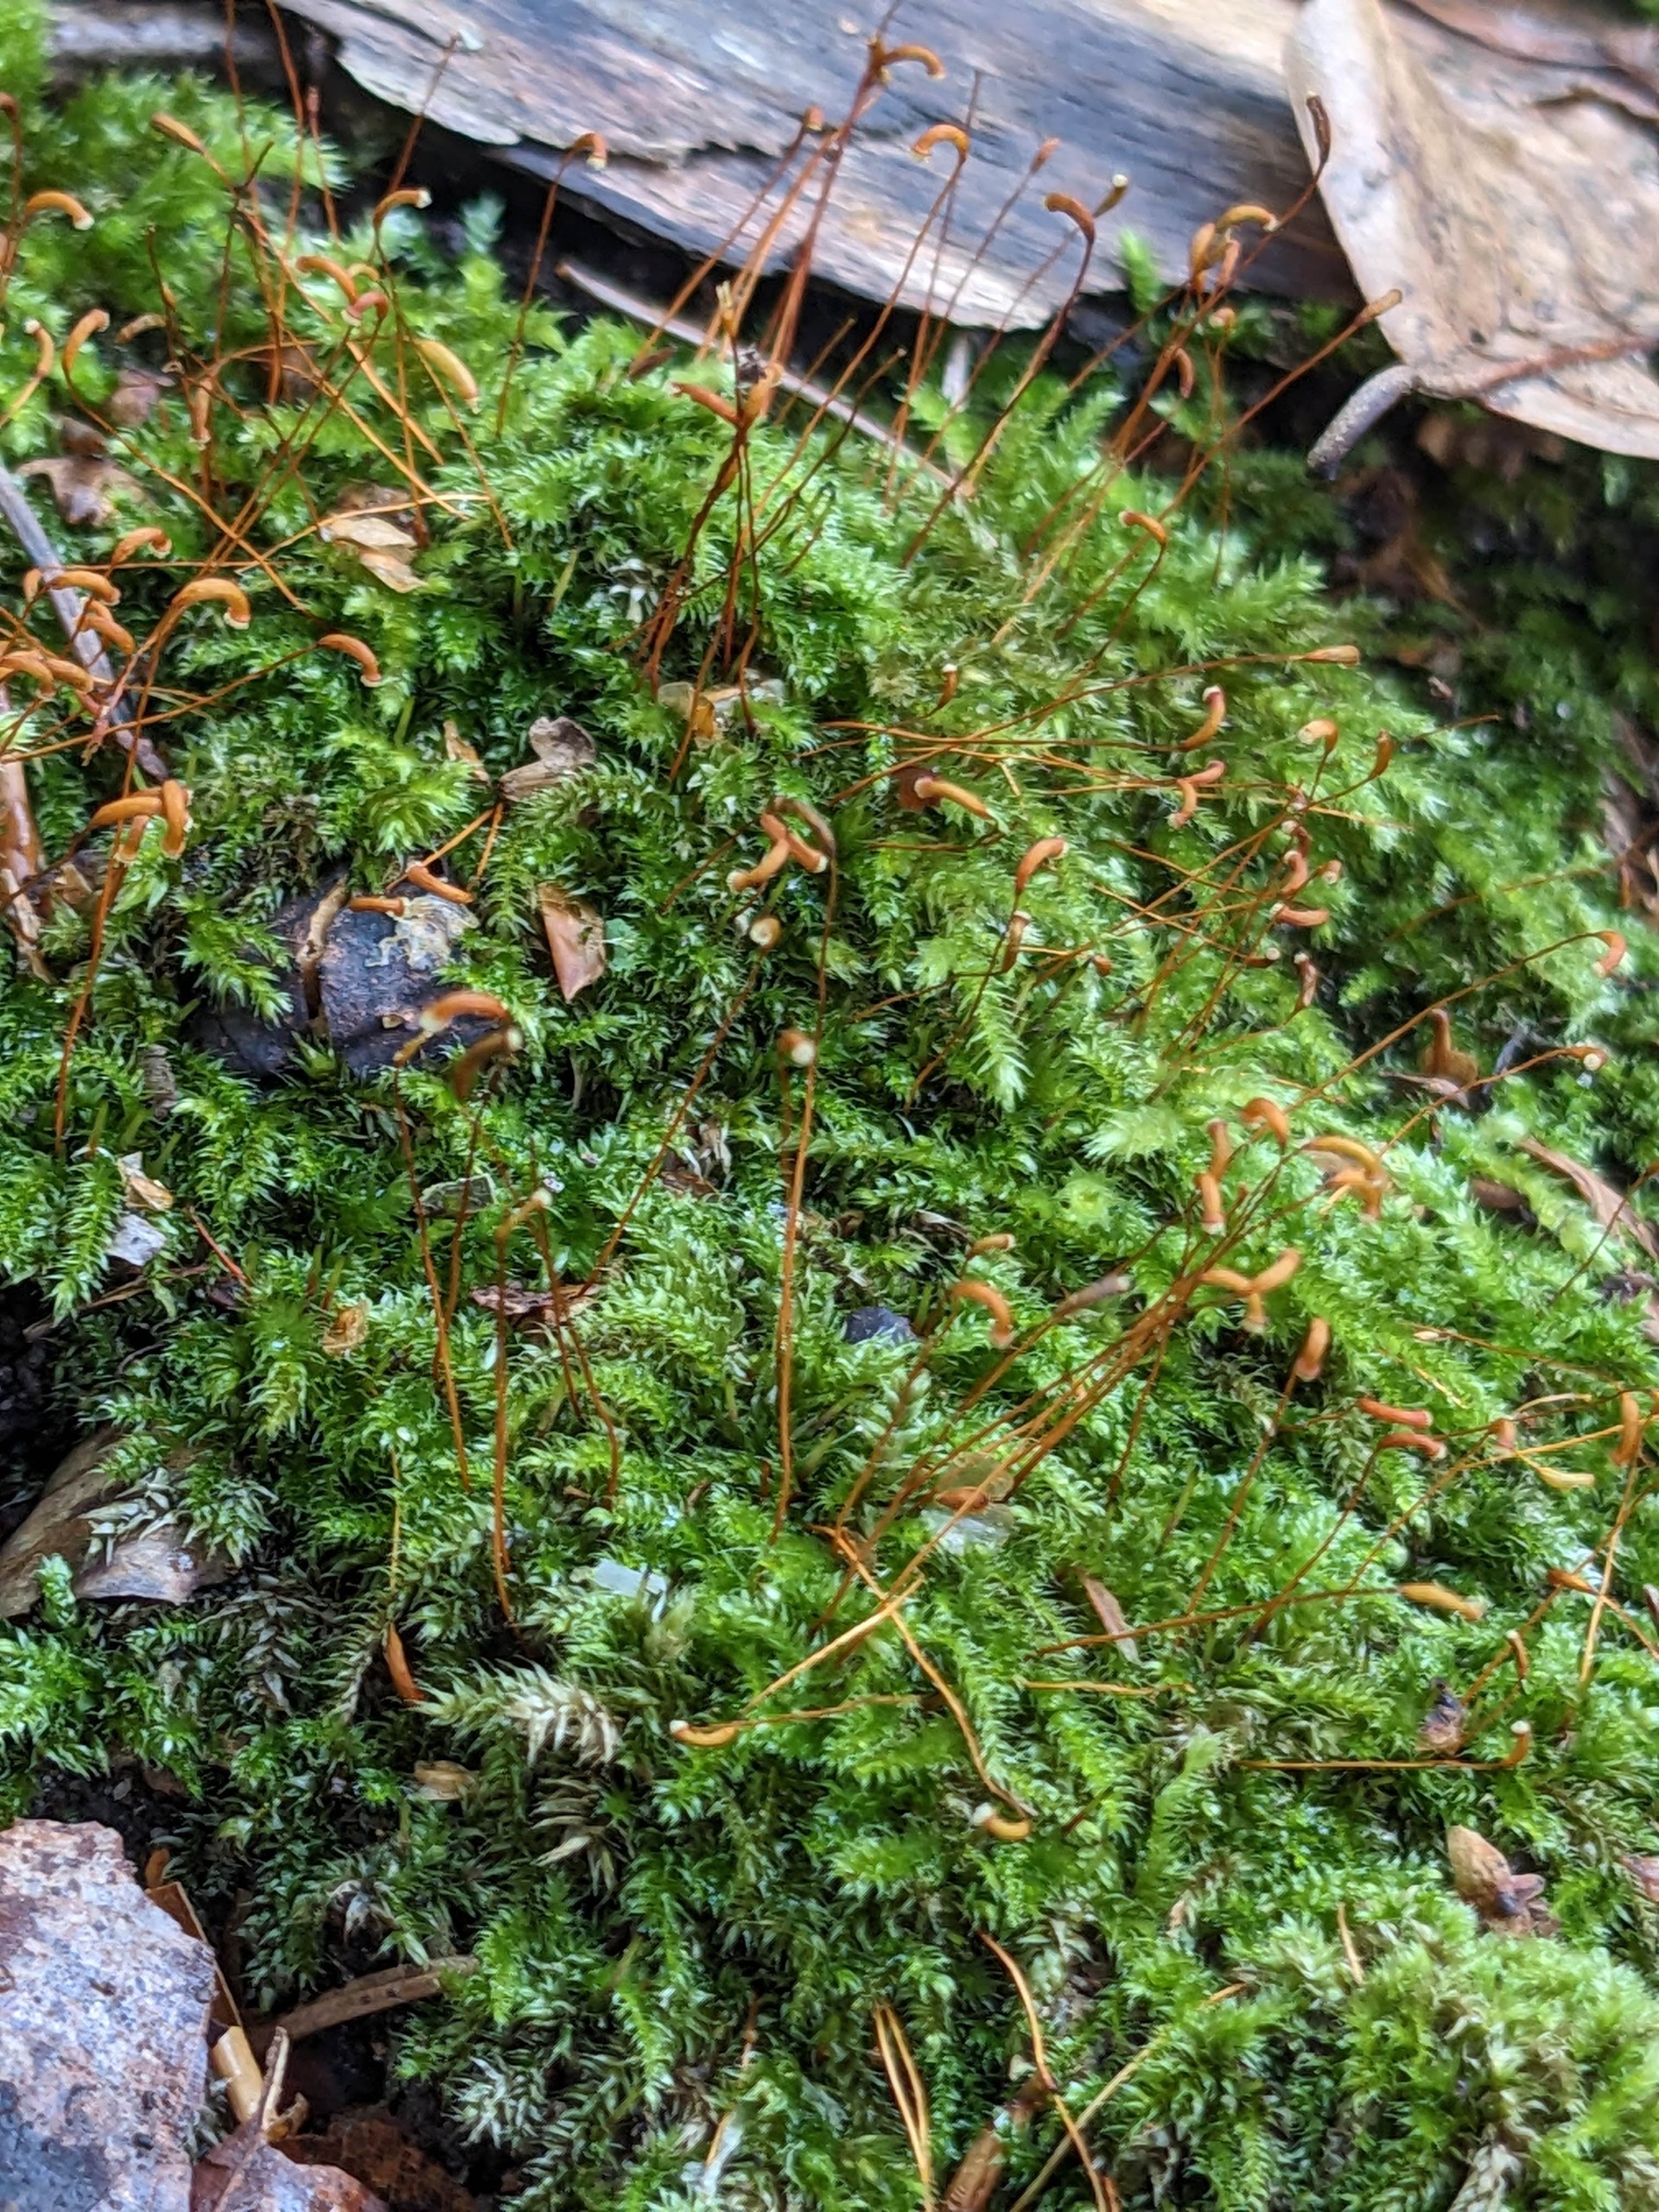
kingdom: Plantae
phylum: Bryophyta
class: Bryopsida
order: Hypnales
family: Plagiotheciaceae
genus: Herzogiella
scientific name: Herzogiella seligeri
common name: Stub-pølsekapsel
